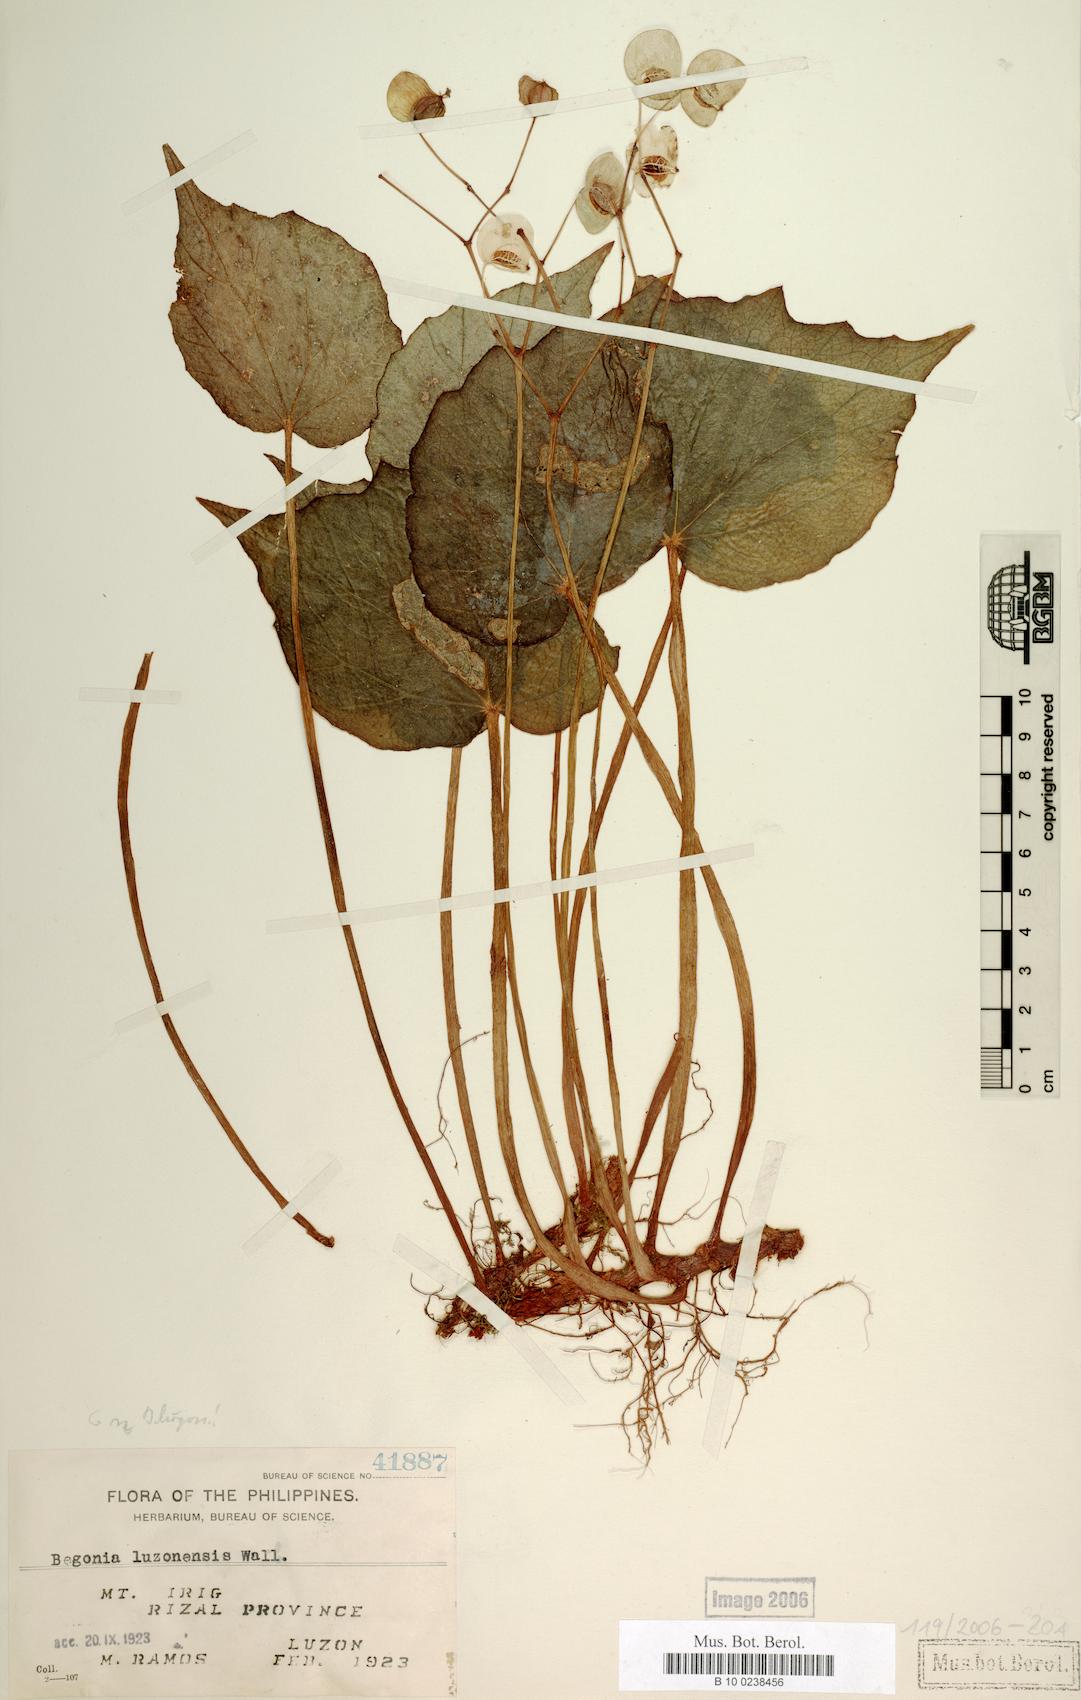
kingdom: Plantae
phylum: Tracheophyta
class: Magnoliopsida
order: Cucurbitales
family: Begoniaceae
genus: Begonia
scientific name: Begonia luzonensis
